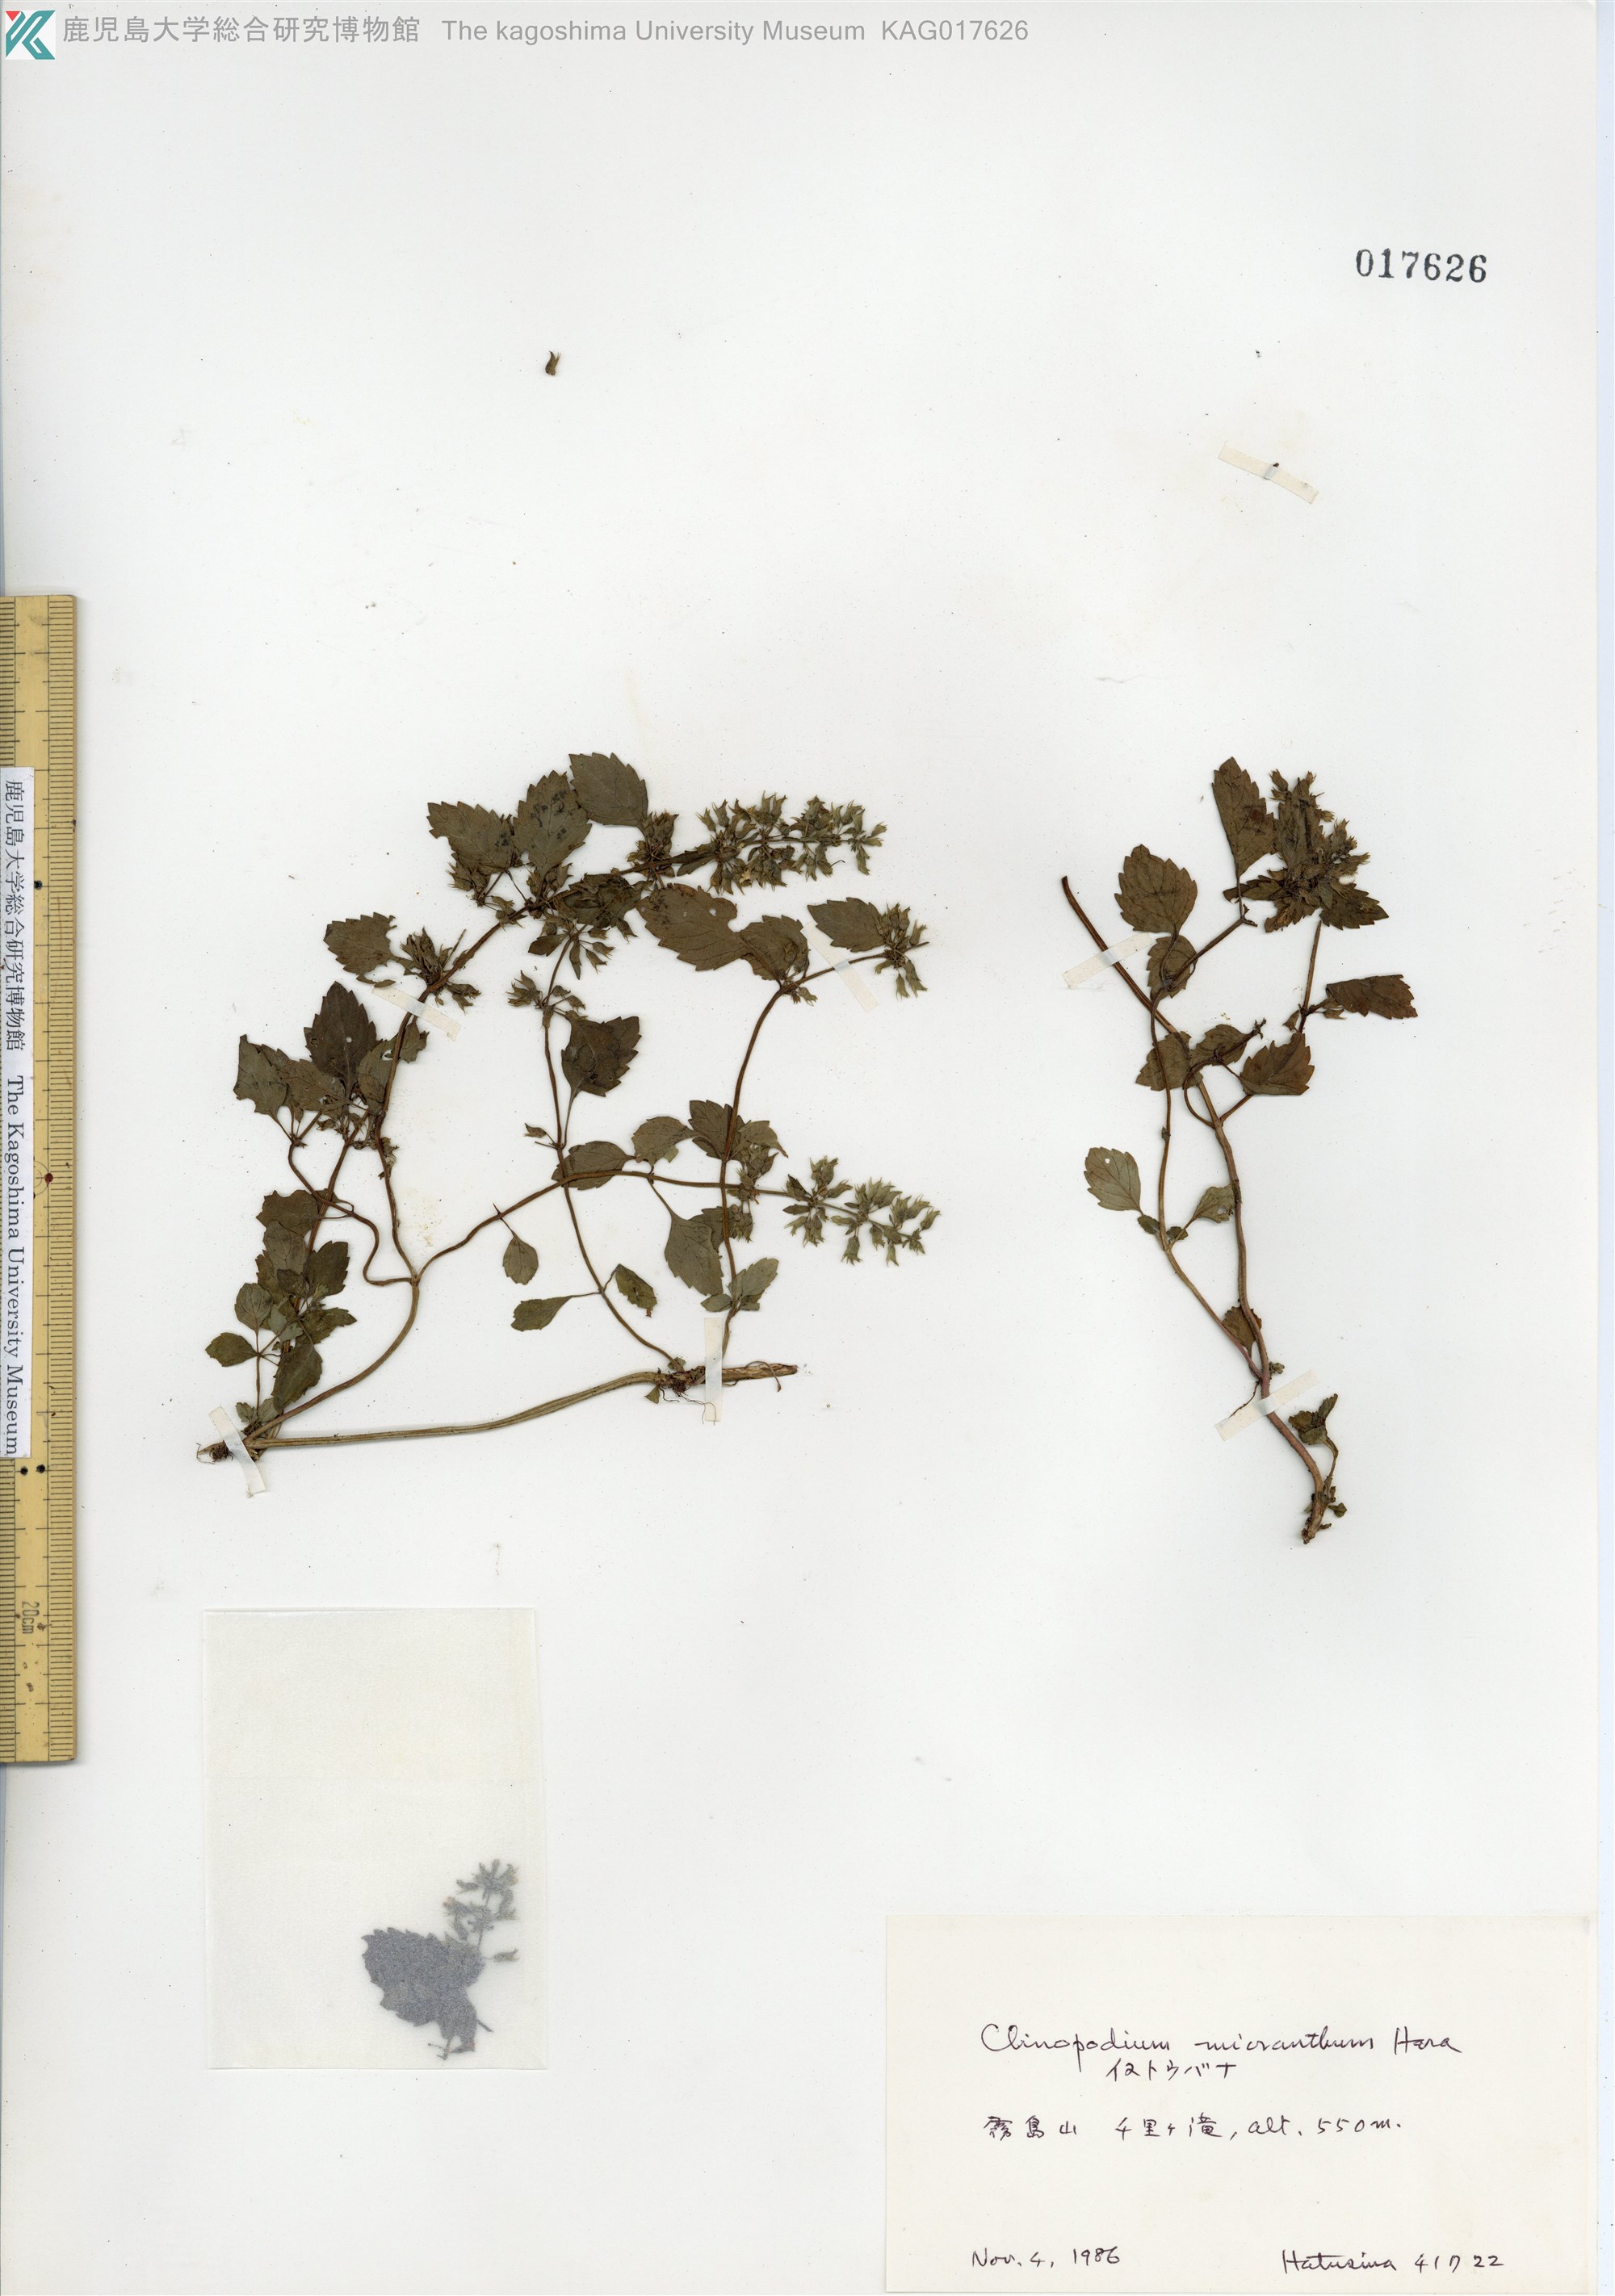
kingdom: Plantae
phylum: Tracheophyta
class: Magnoliopsida
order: Lamiales
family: Lamiaceae
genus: Clinopodium
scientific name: Clinopodium micranthum
